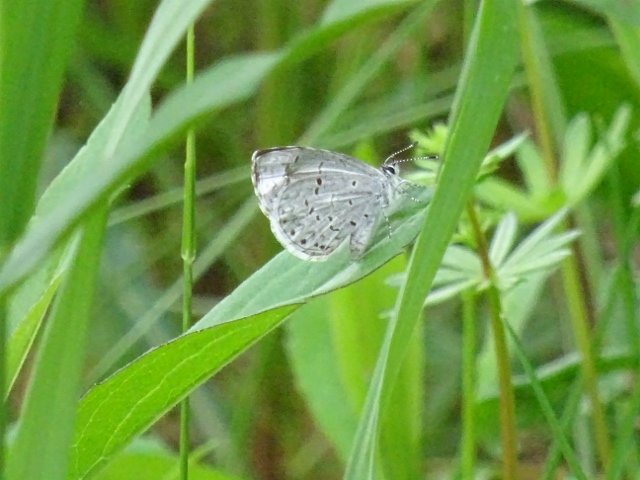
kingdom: Animalia
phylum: Arthropoda
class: Insecta
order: Lepidoptera
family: Lycaenidae
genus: Celastrina
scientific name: Celastrina
